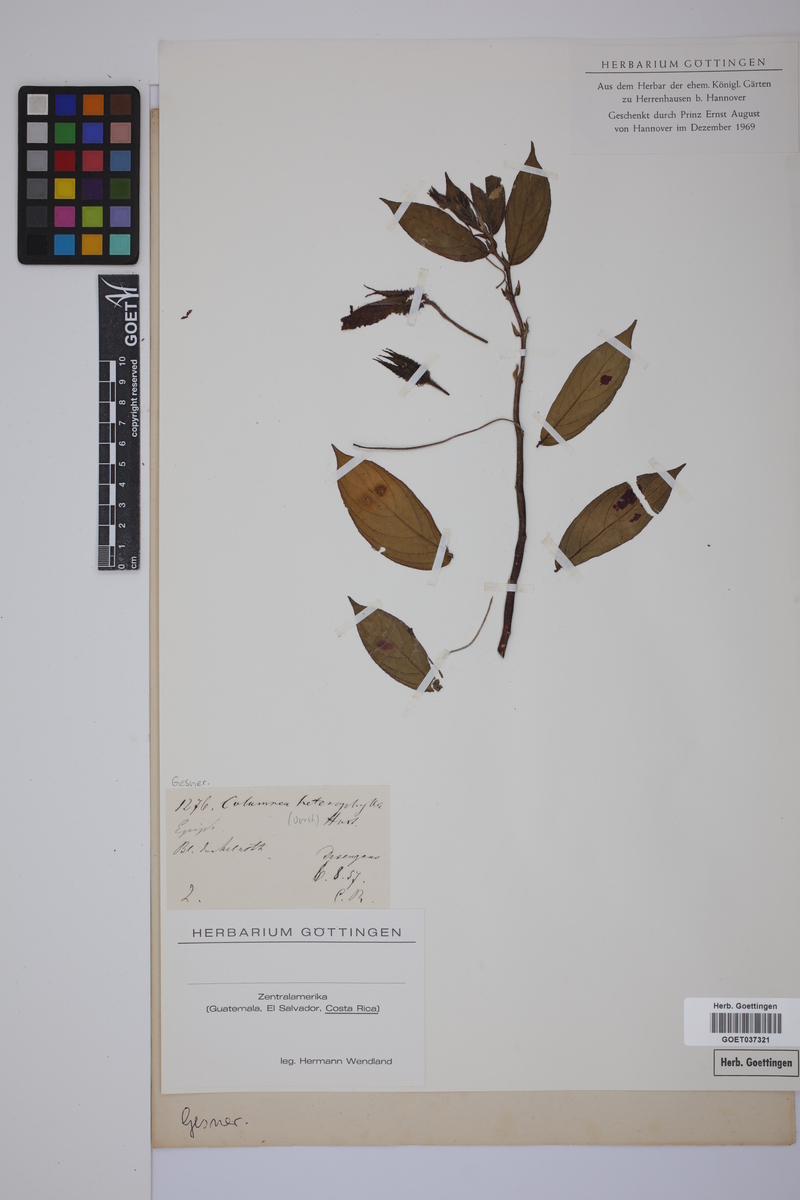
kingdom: Plantae
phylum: Tracheophyta
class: Magnoliopsida
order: Lamiales
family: Gesneriaceae
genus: Columnea
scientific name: Columnea grata
